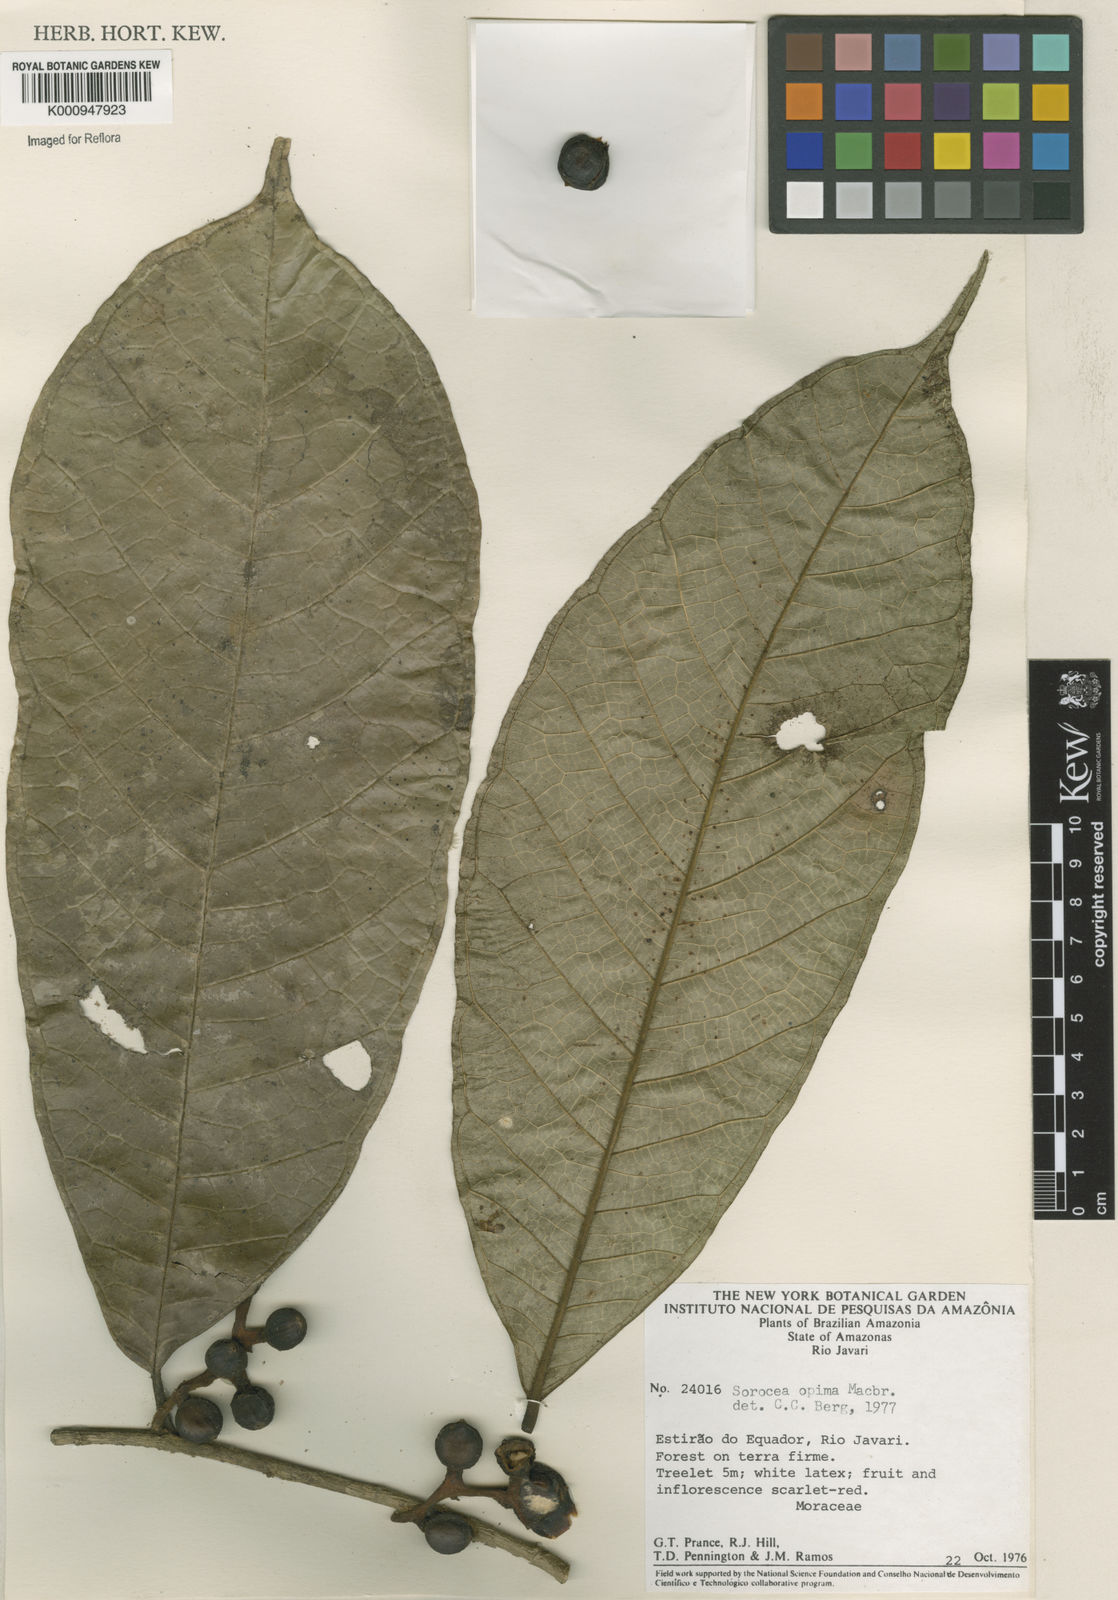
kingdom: Plantae
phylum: Tracheophyta
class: Magnoliopsida
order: Rosales
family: Moraceae
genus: Sorocea
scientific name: Sorocea pubivena
